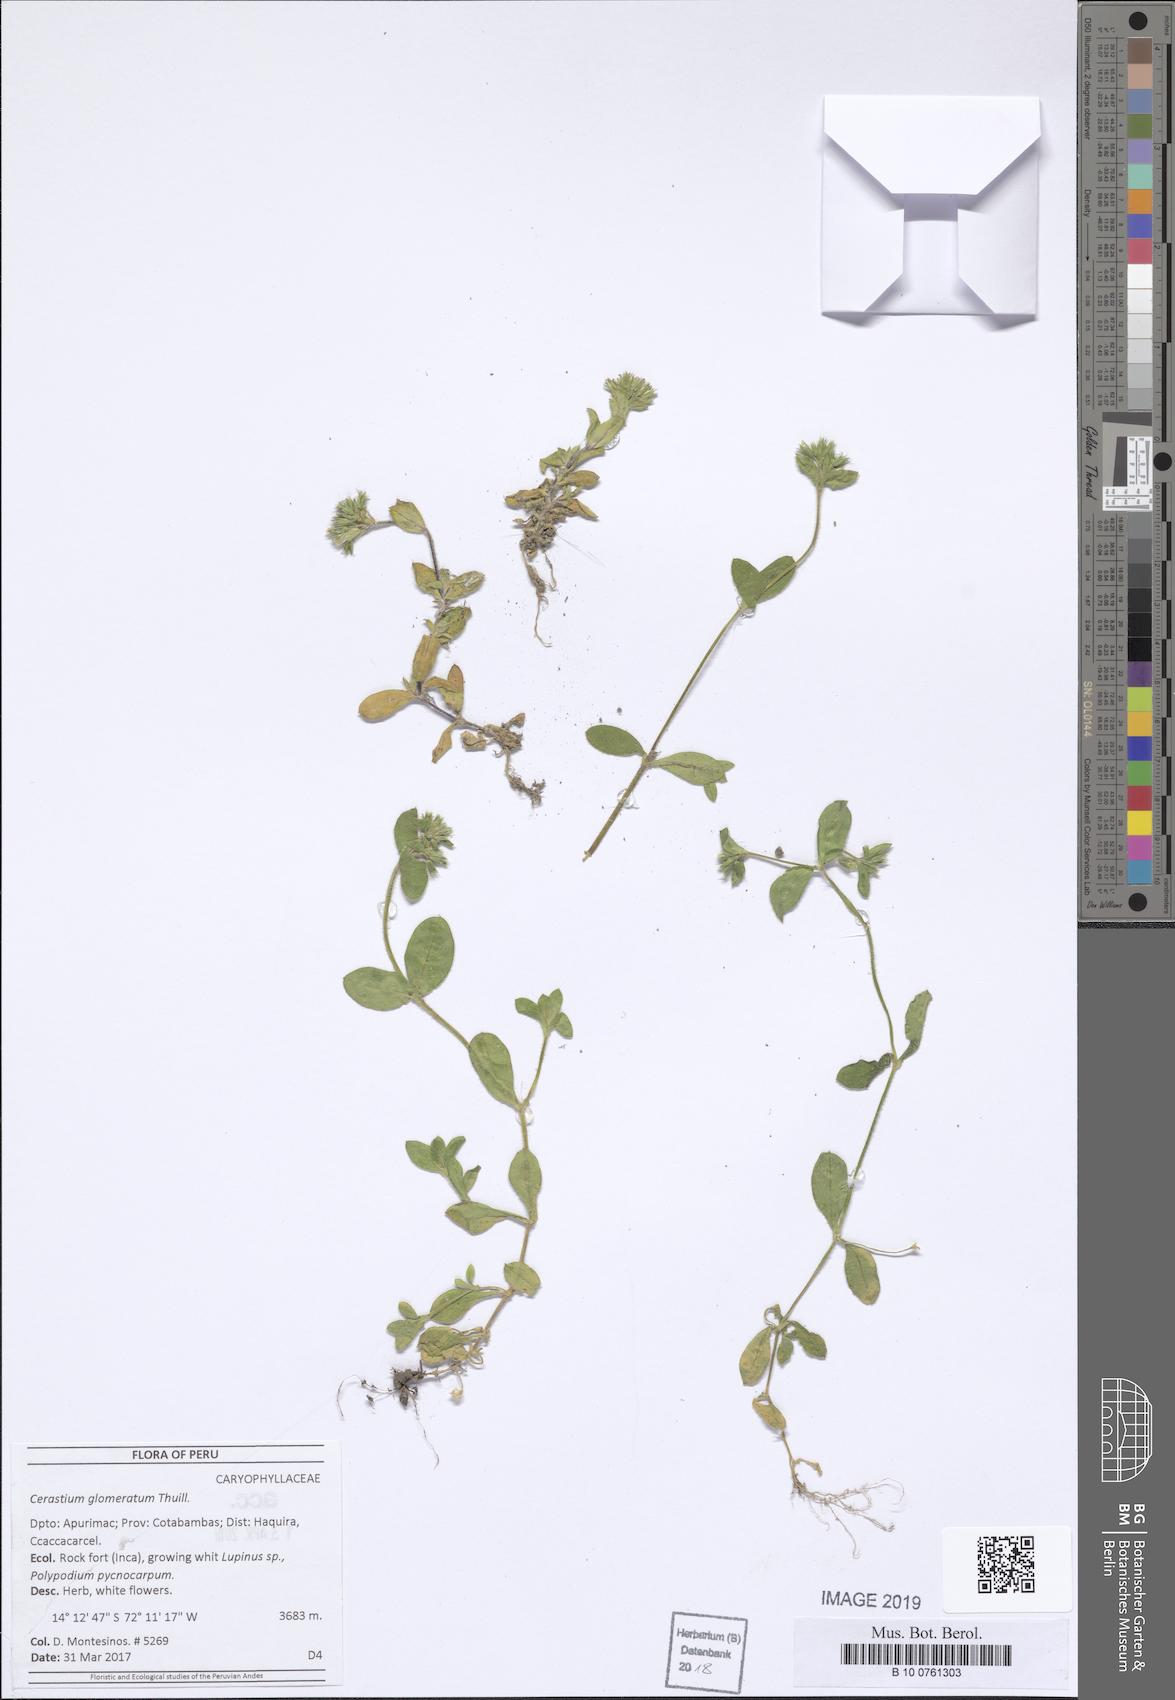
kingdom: Plantae
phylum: Tracheophyta
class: Magnoliopsida
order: Caryophyllales
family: Caryophyllaceae
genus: Cerastium
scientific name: Cerastium glomeratum
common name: Sticky chickweed
